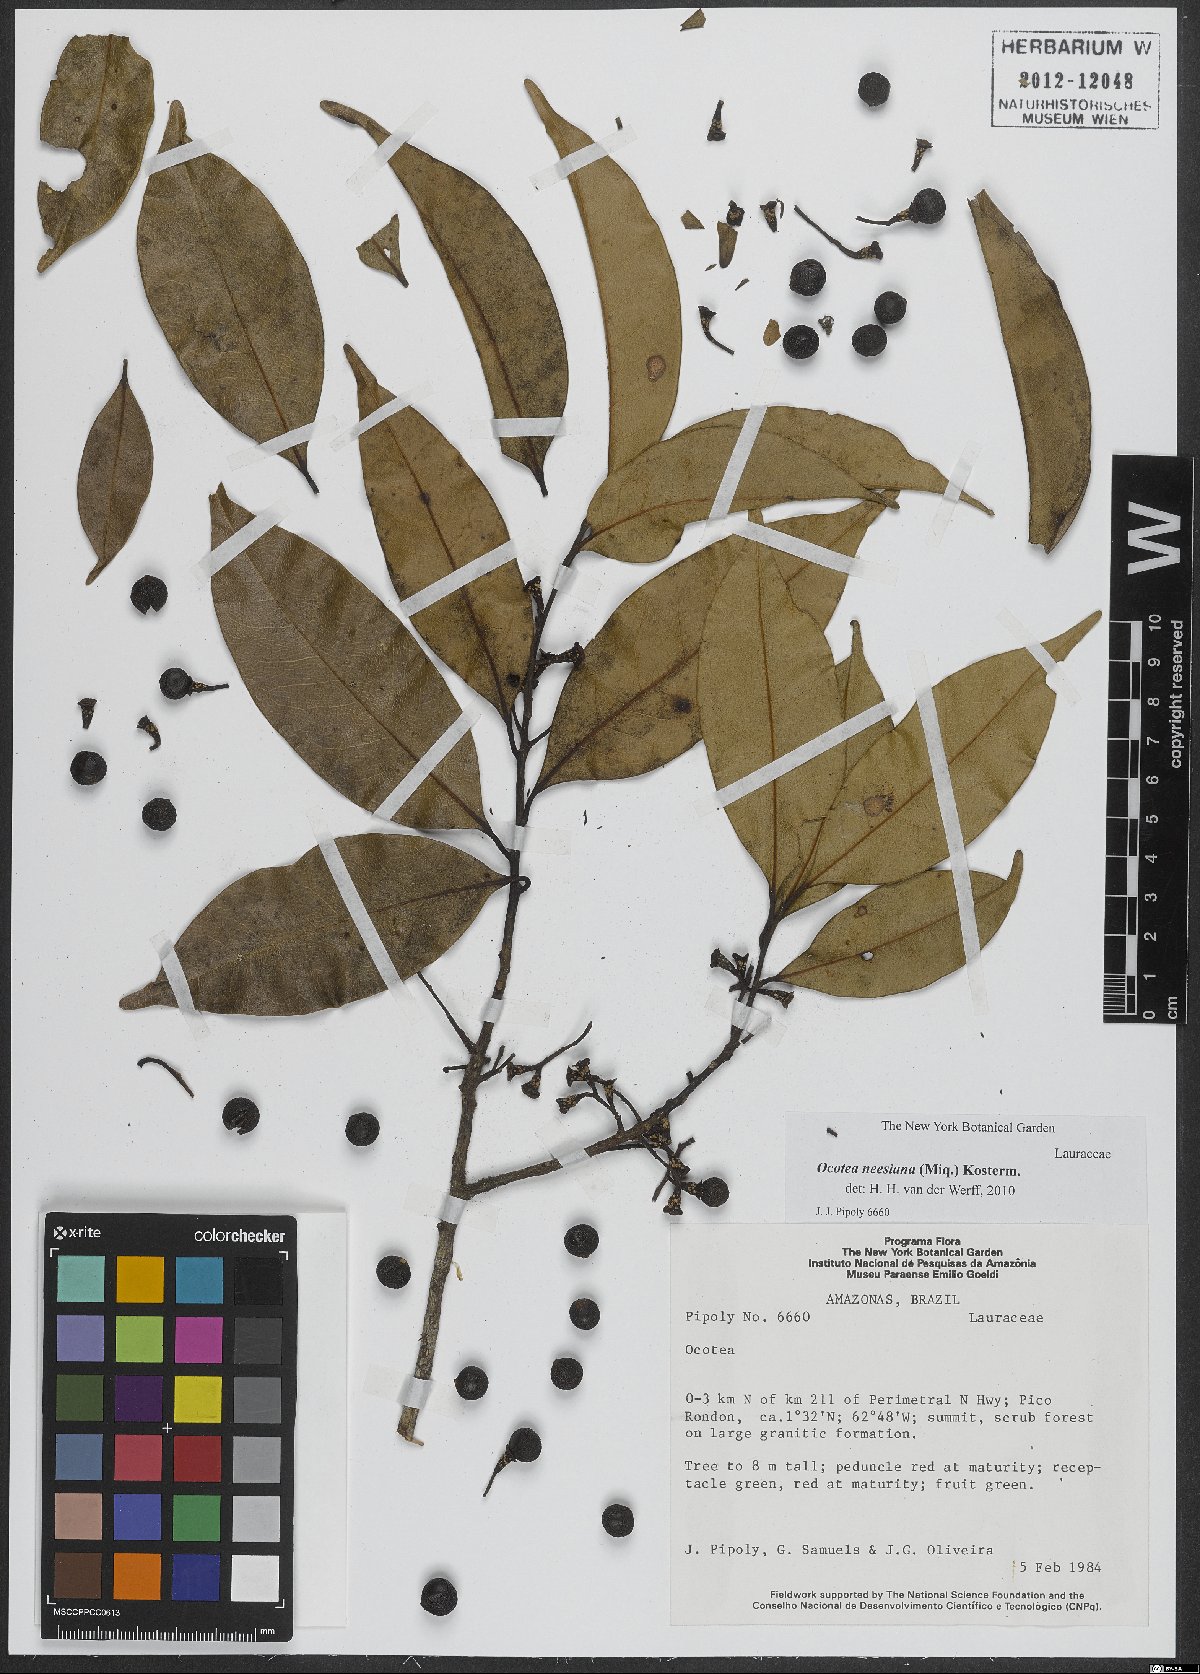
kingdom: Plantae
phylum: Tracheophyta
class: Magnoliopsida
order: Laurales
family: Lauraceae
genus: Ocotea
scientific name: Ocotea neesiana
